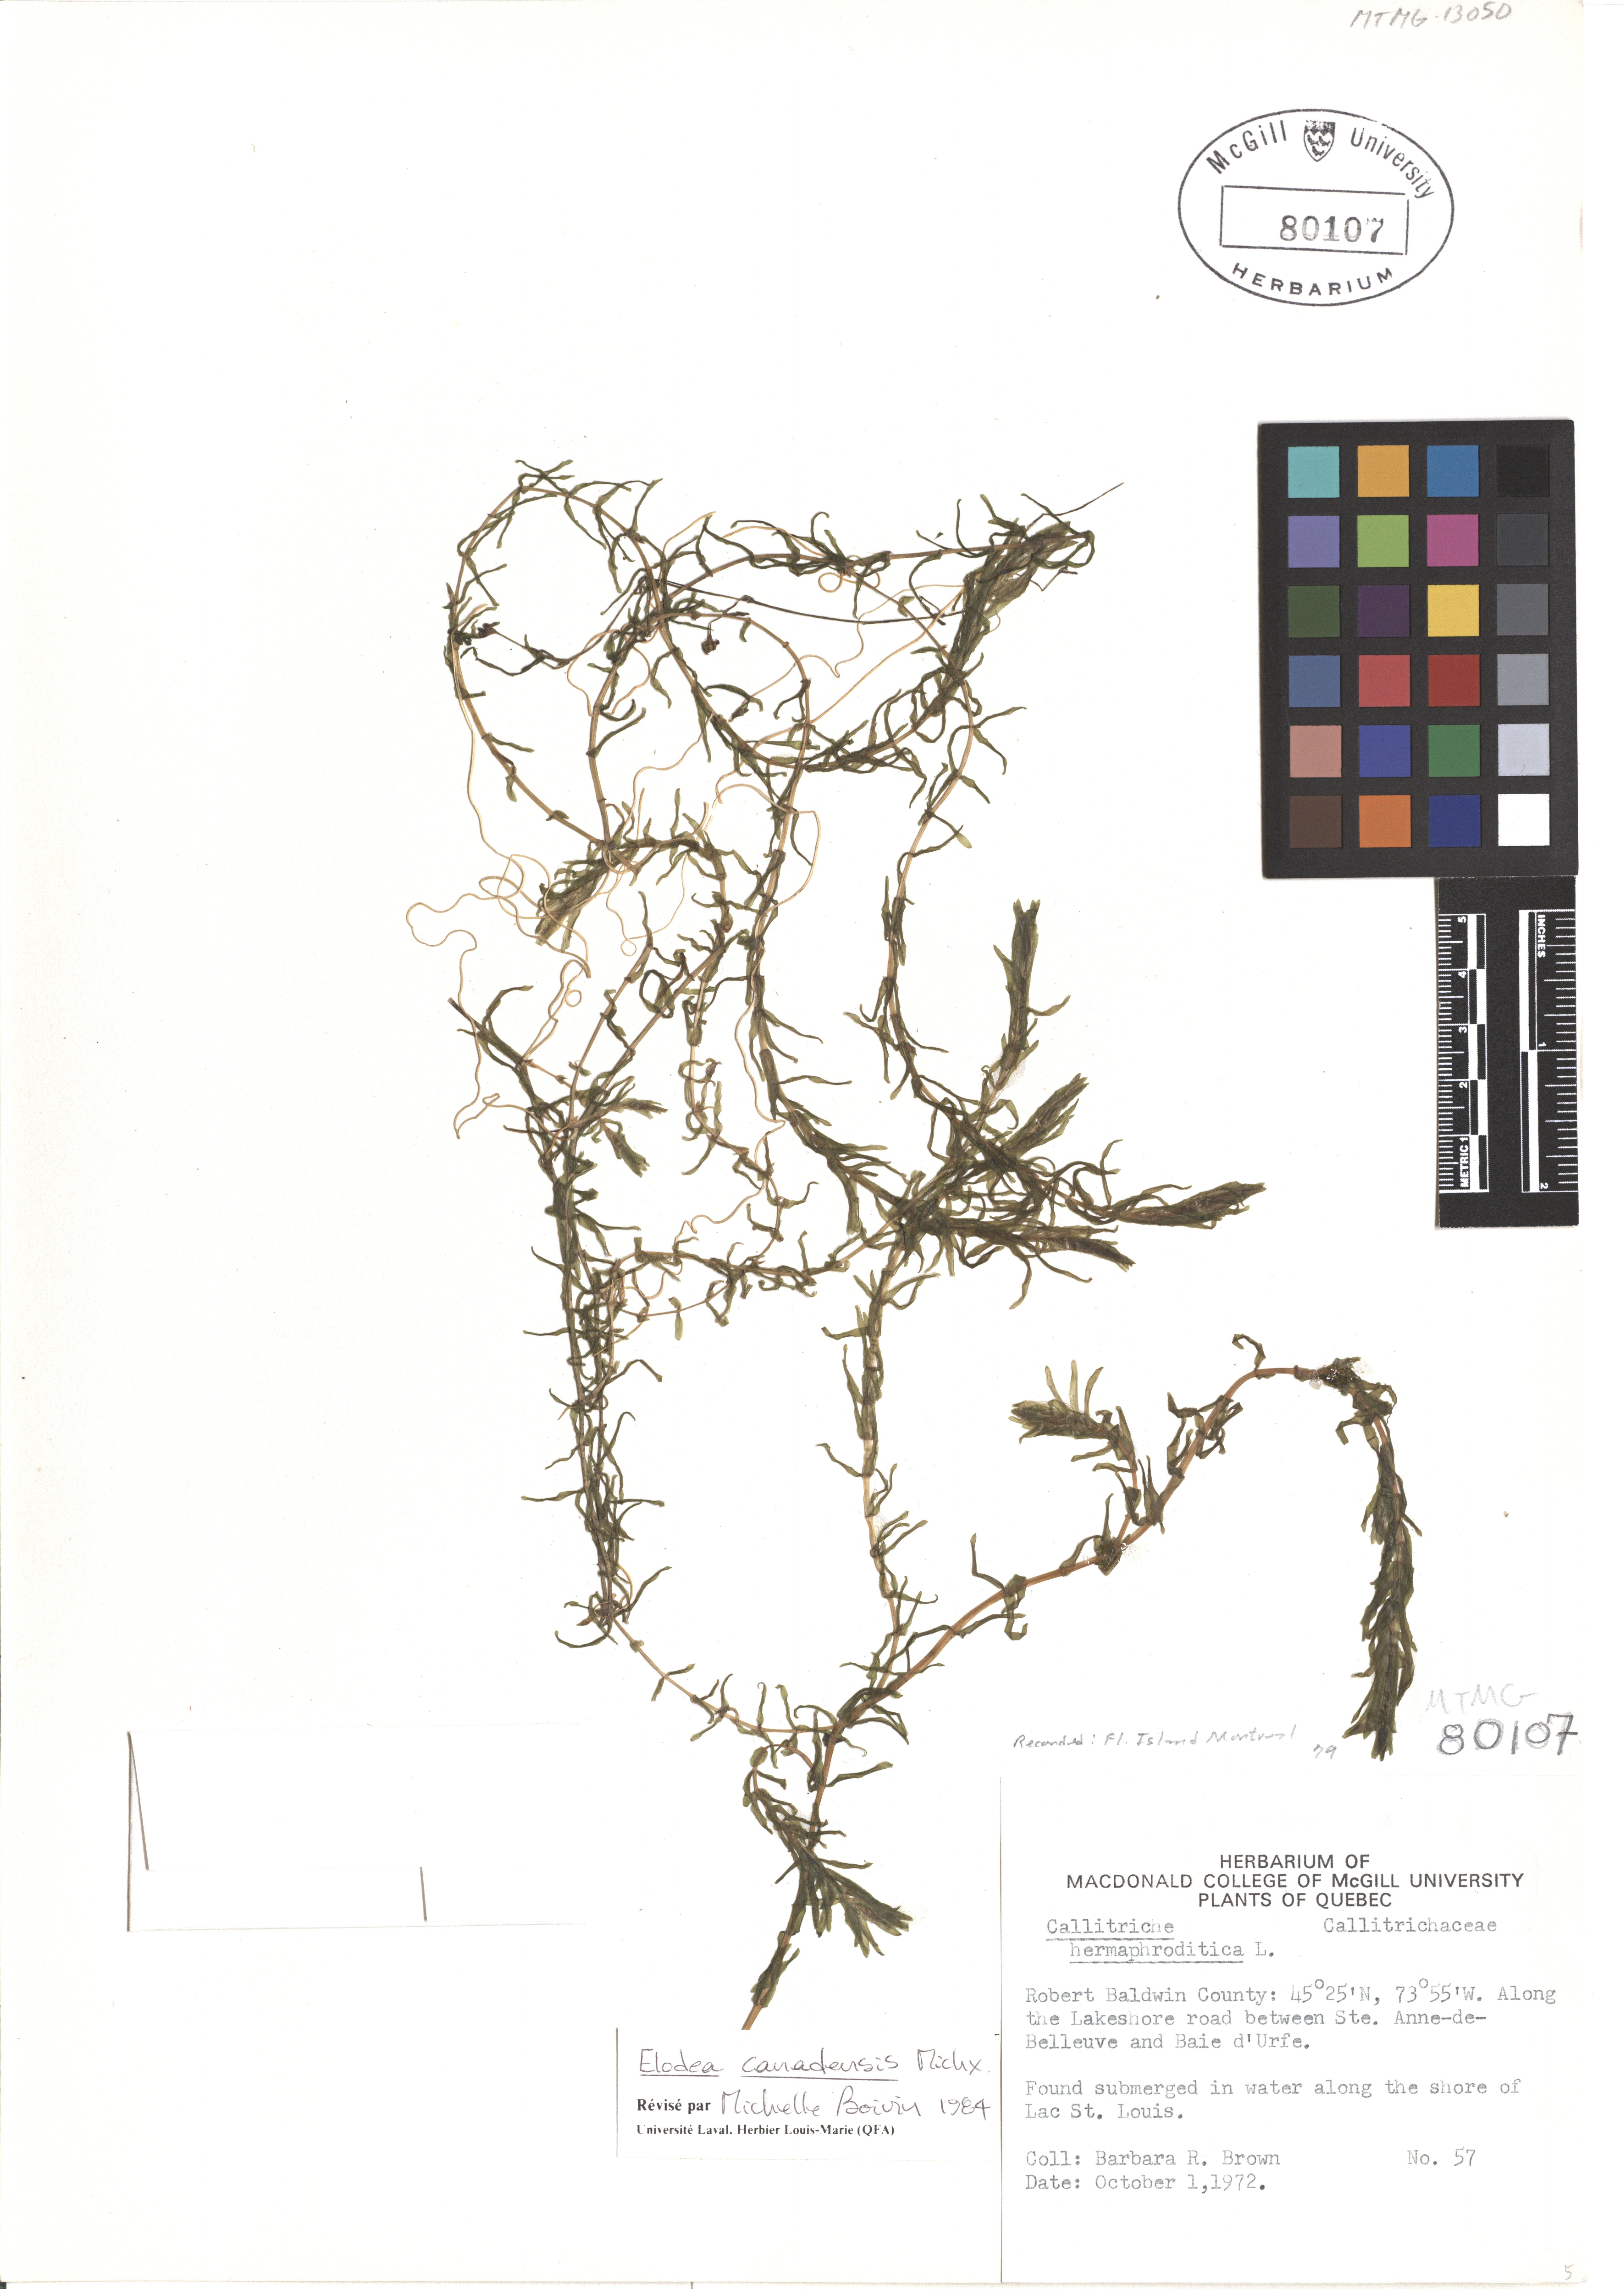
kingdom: Plantae
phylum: Tracheophyta
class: Liliopsida
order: Alismatales
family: Hydrocharitaceae
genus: Elodea
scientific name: Elodea canadensis
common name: Canadian waterweed
